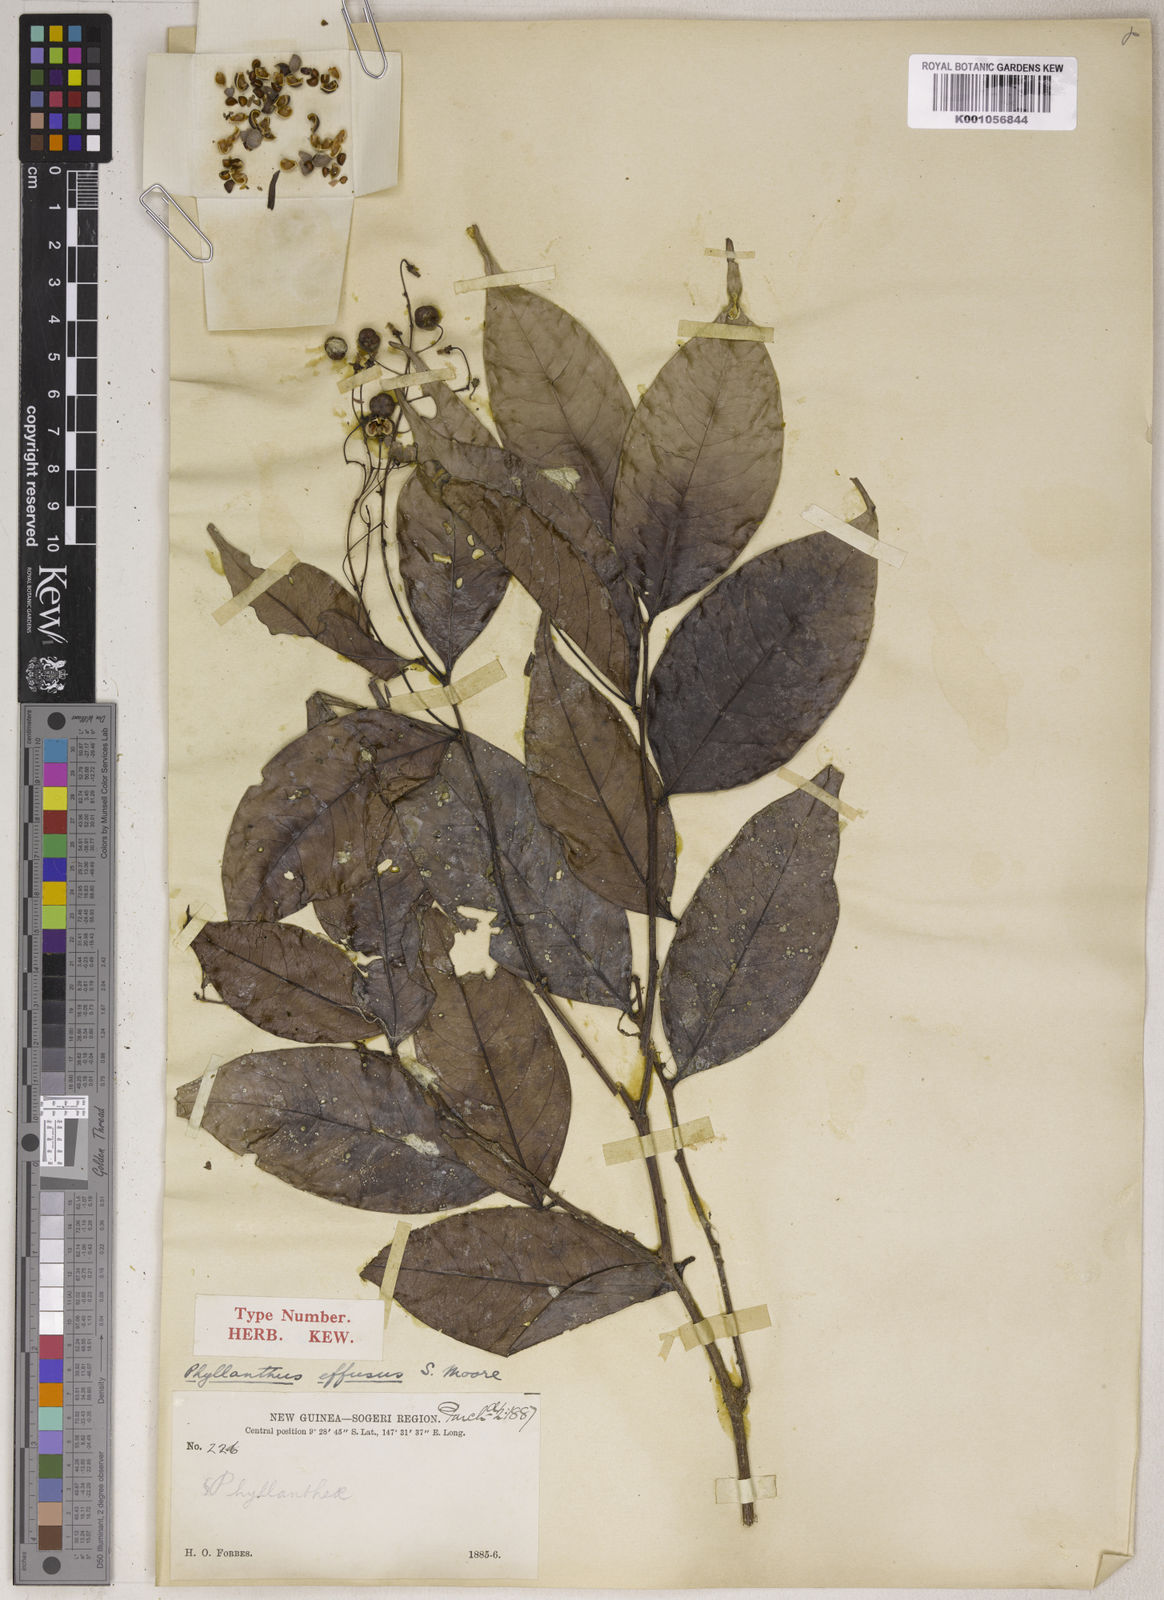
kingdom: Plantae
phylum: Tracheophyta
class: Magnoliopsida
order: Malpighiales
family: Phyllanthaceae
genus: Phyllanthus
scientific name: Phyllanthus effusus
